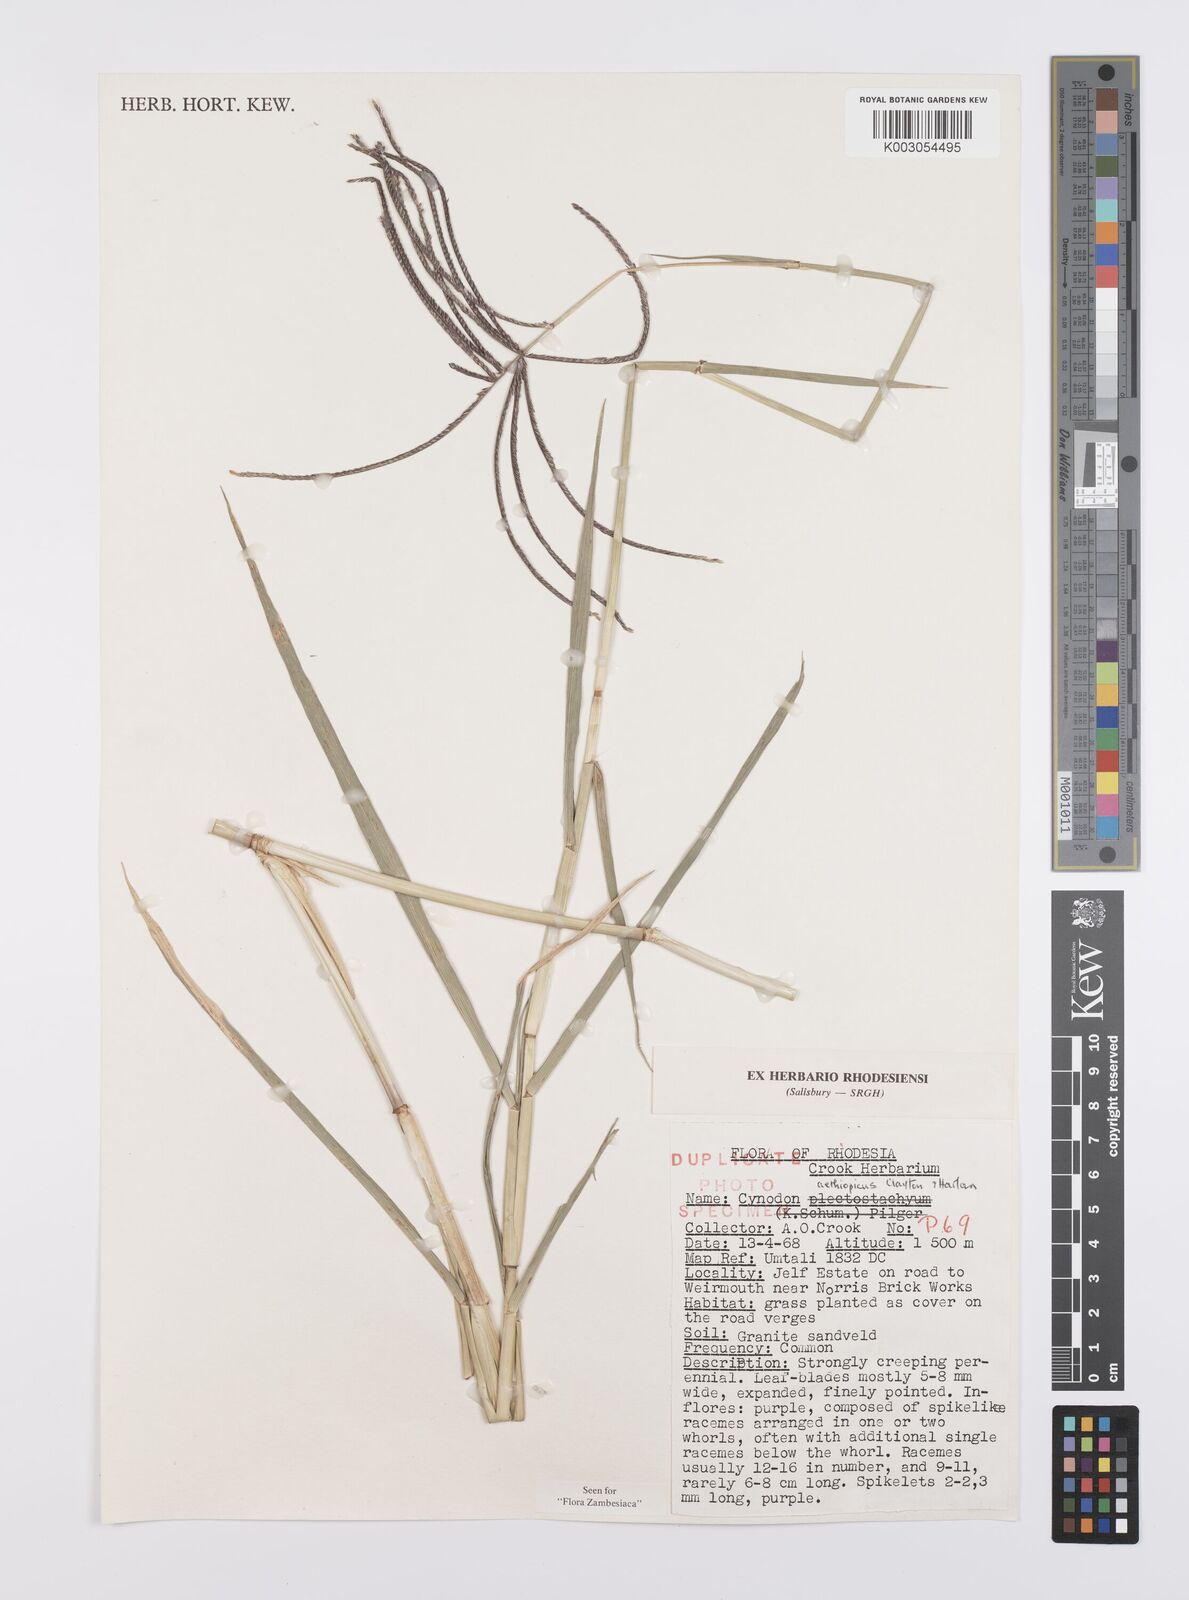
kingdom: Plantae
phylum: Tracheophyta
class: Liliopsida
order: Poales
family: Poaceae
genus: Cynodon
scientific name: Cynodon aethiopicus
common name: Ethiopian dogstooth grass
